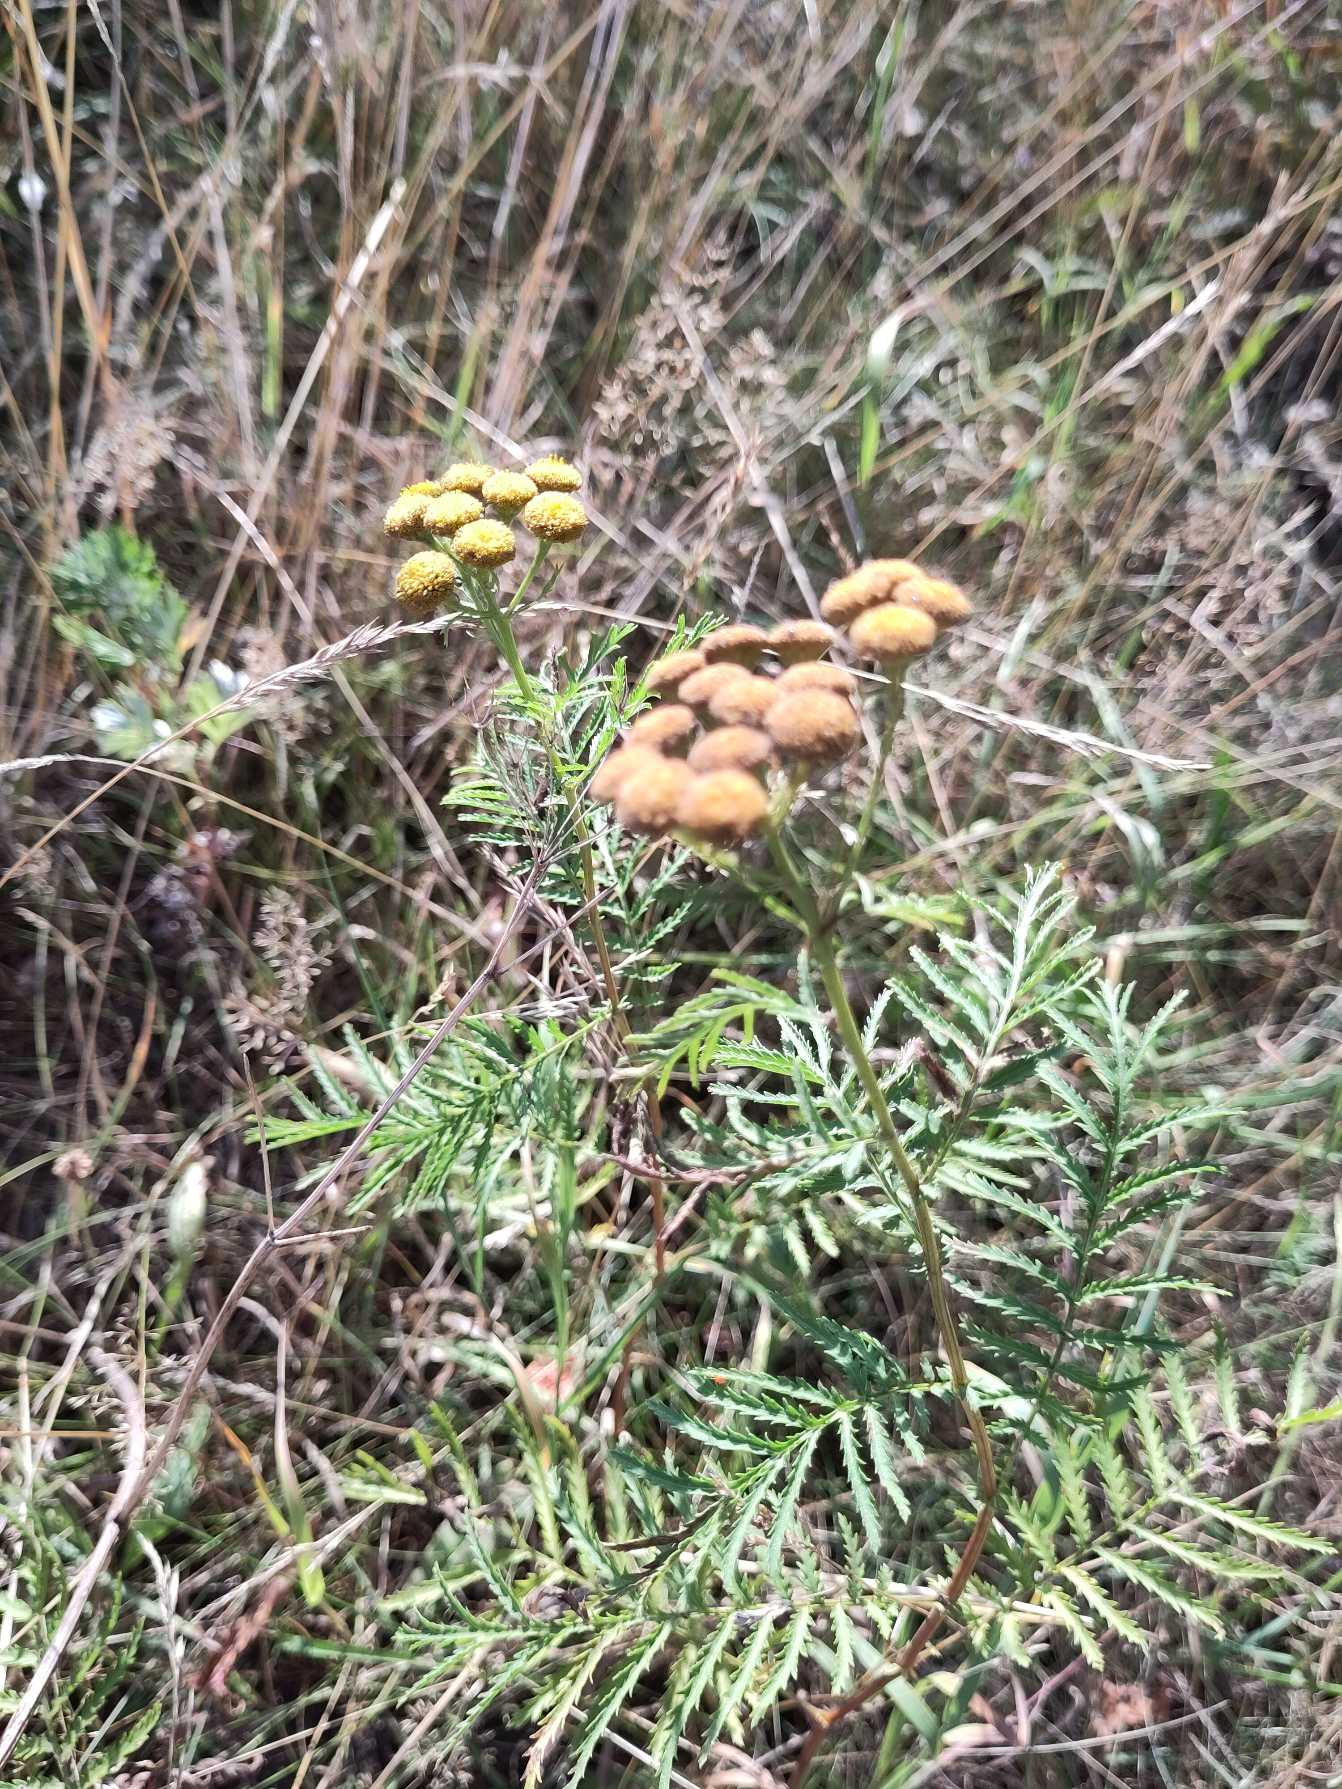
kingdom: Plantae
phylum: Tracheophyta
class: Magnoliopsida
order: Asterales
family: Asteraceae
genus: Tanacetum
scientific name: Tanacetum vulgare
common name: Rejnfan
